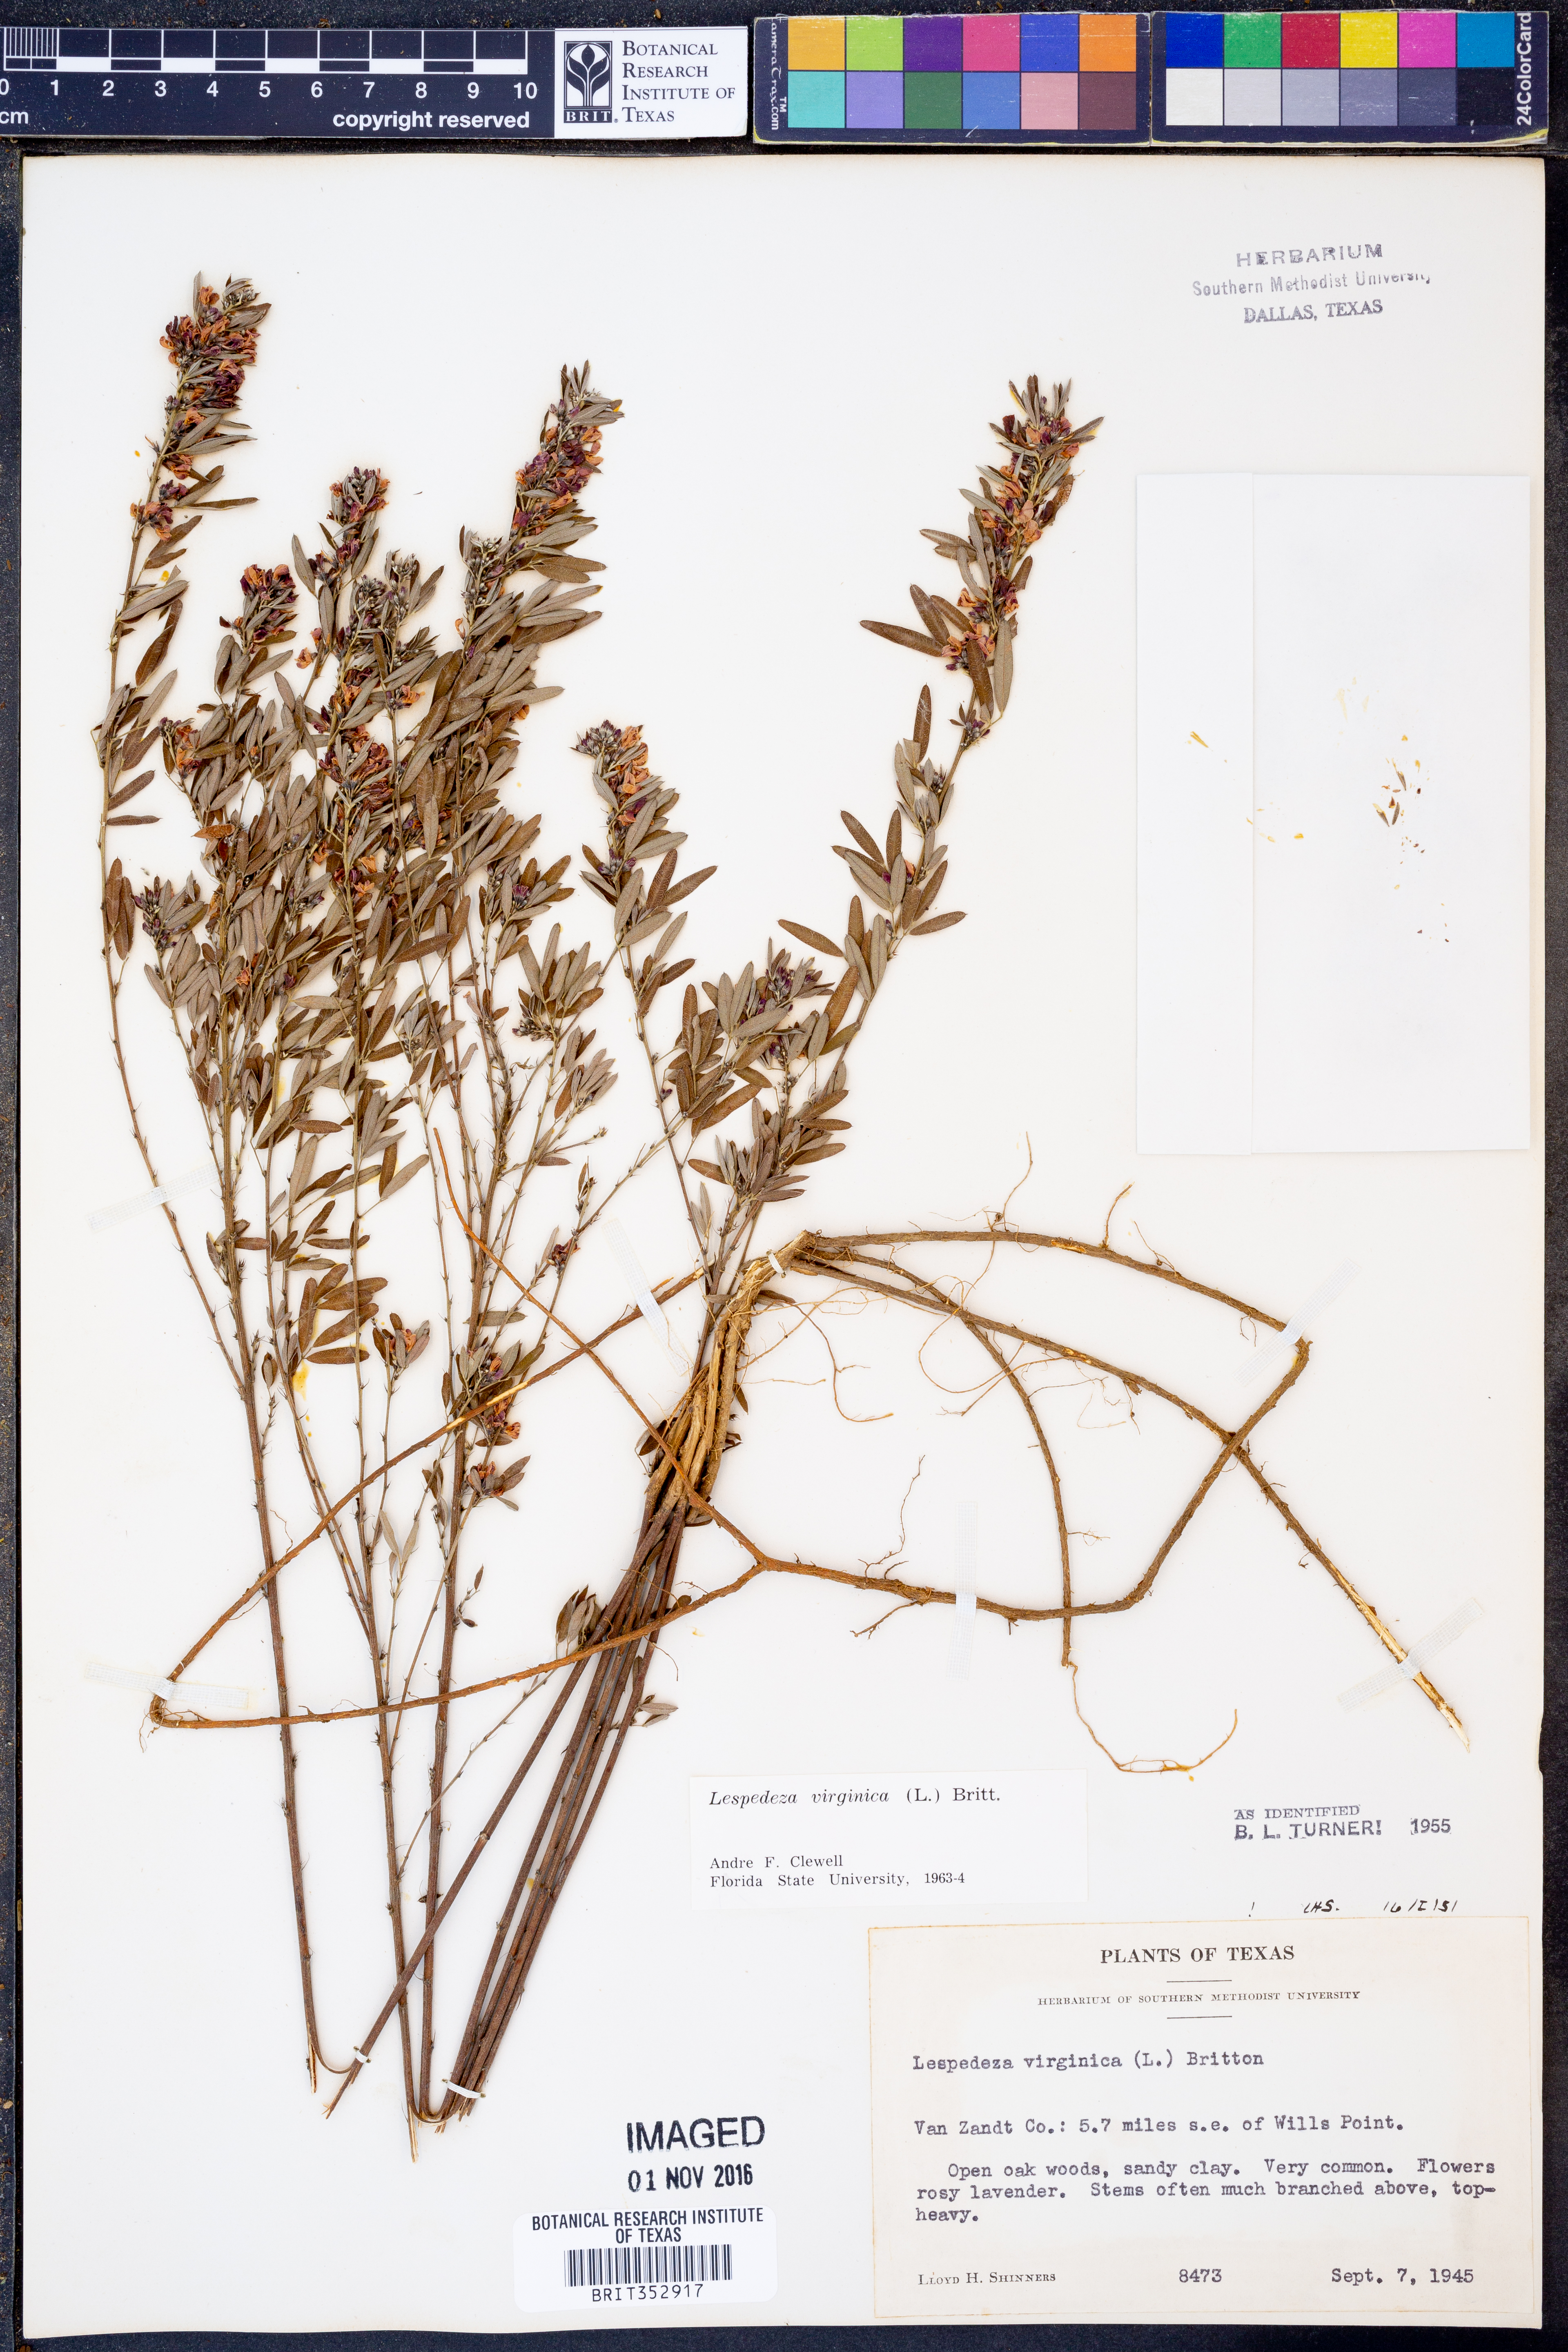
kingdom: Plantae
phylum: Tracheophyta
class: Magnoliopsida
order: Fabales
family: Fabaceae
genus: Lespedeza
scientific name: Lespedeza virginica
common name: Slender bush-clover
